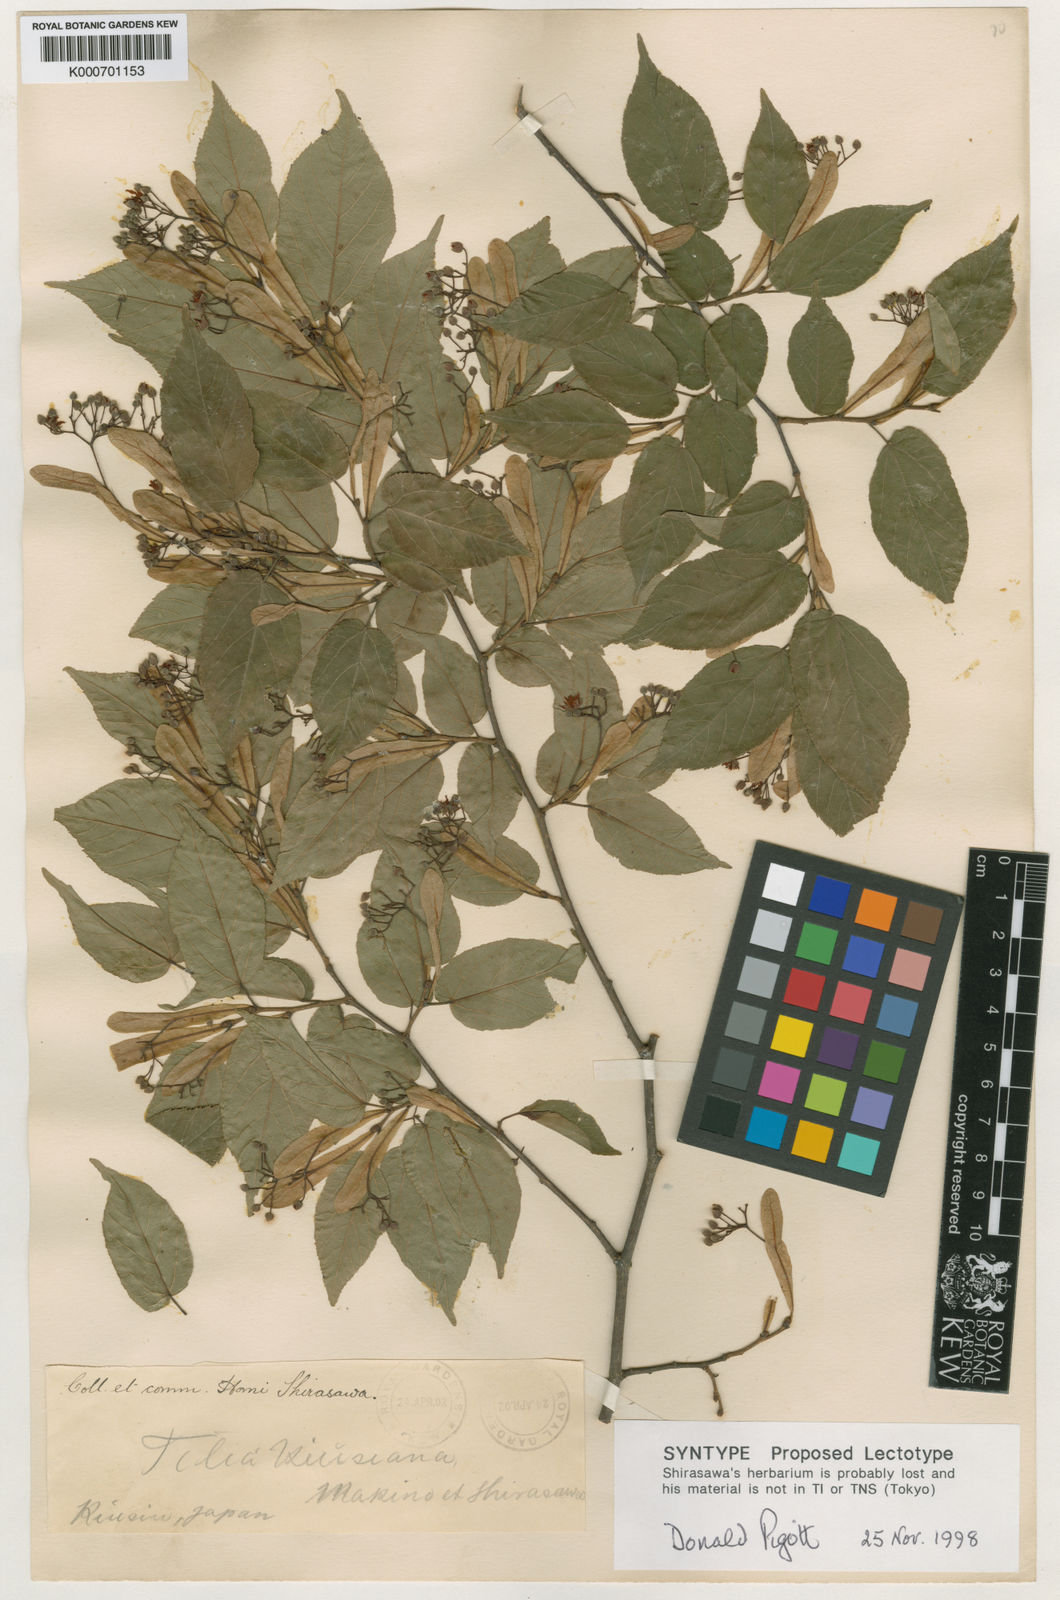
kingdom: Plantae
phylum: Tracheophyta
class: Magnoliopsida
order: Malvales
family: Malvaceae
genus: Tilia
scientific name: Tilia kiusiana
